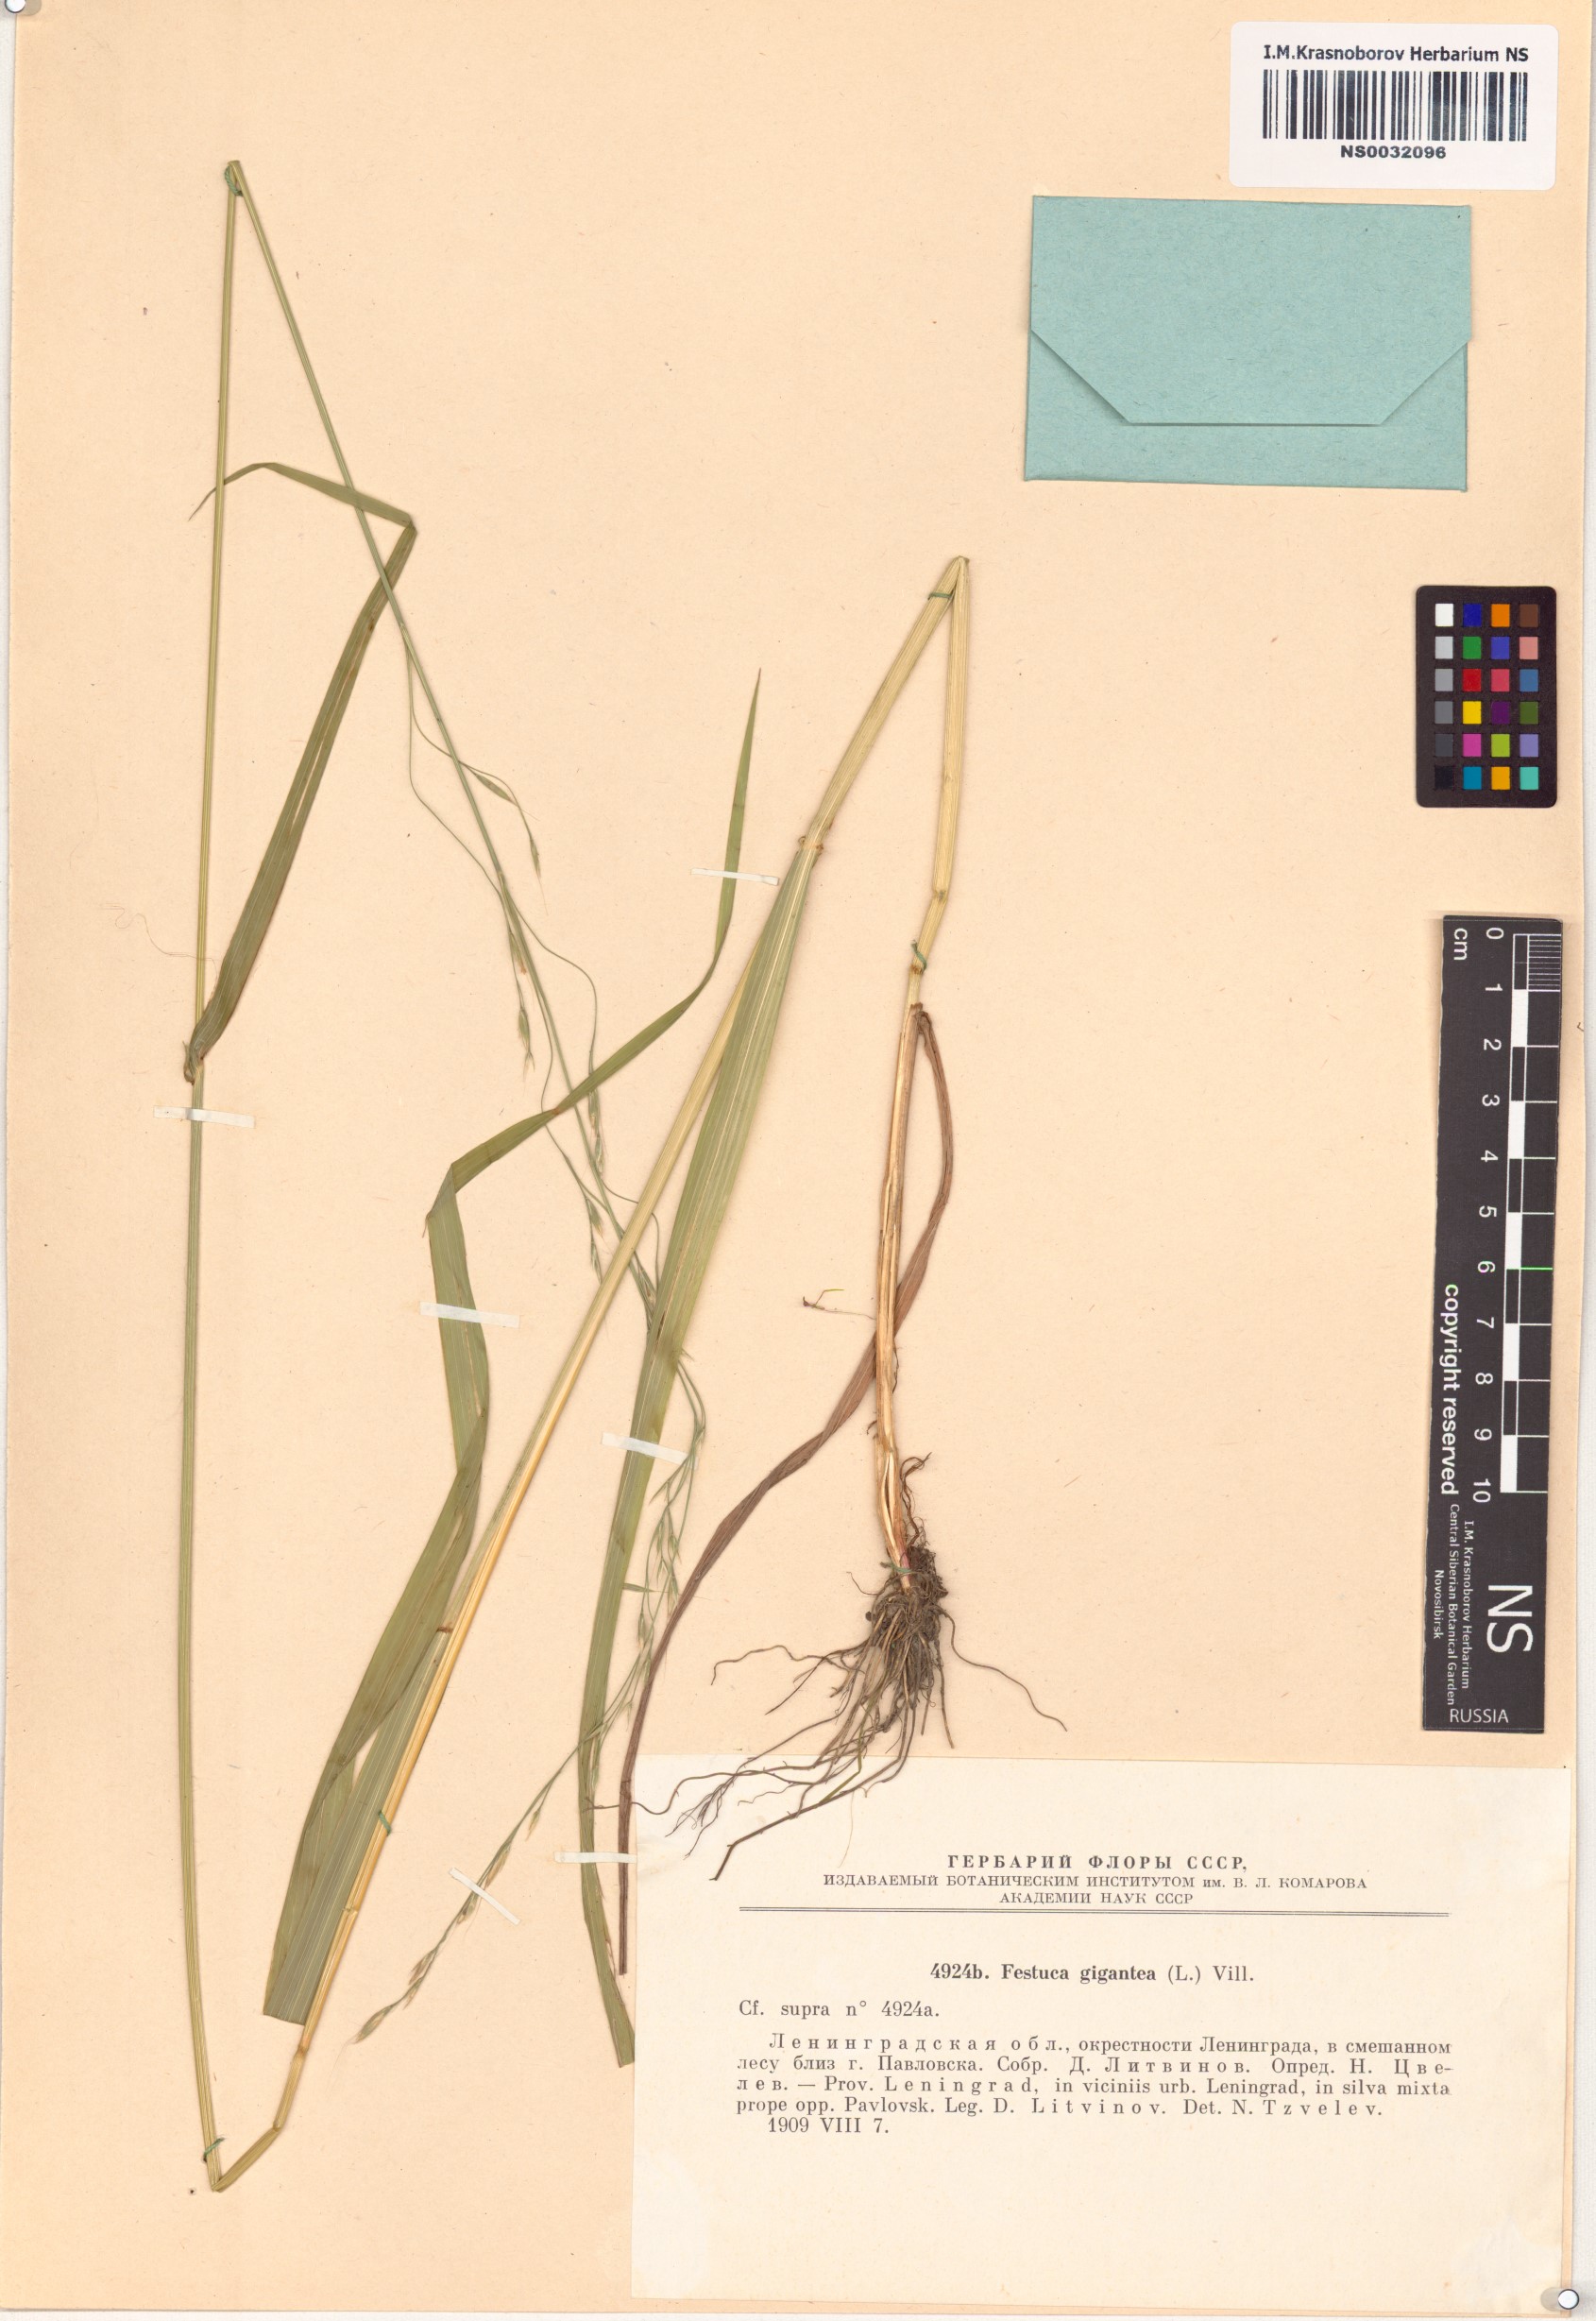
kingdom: Plantae
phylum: Tracheophyta
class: Liliopsida
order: Poales
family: Poaceae
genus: Lolium
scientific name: Lolium giganteum
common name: Giant fescue
